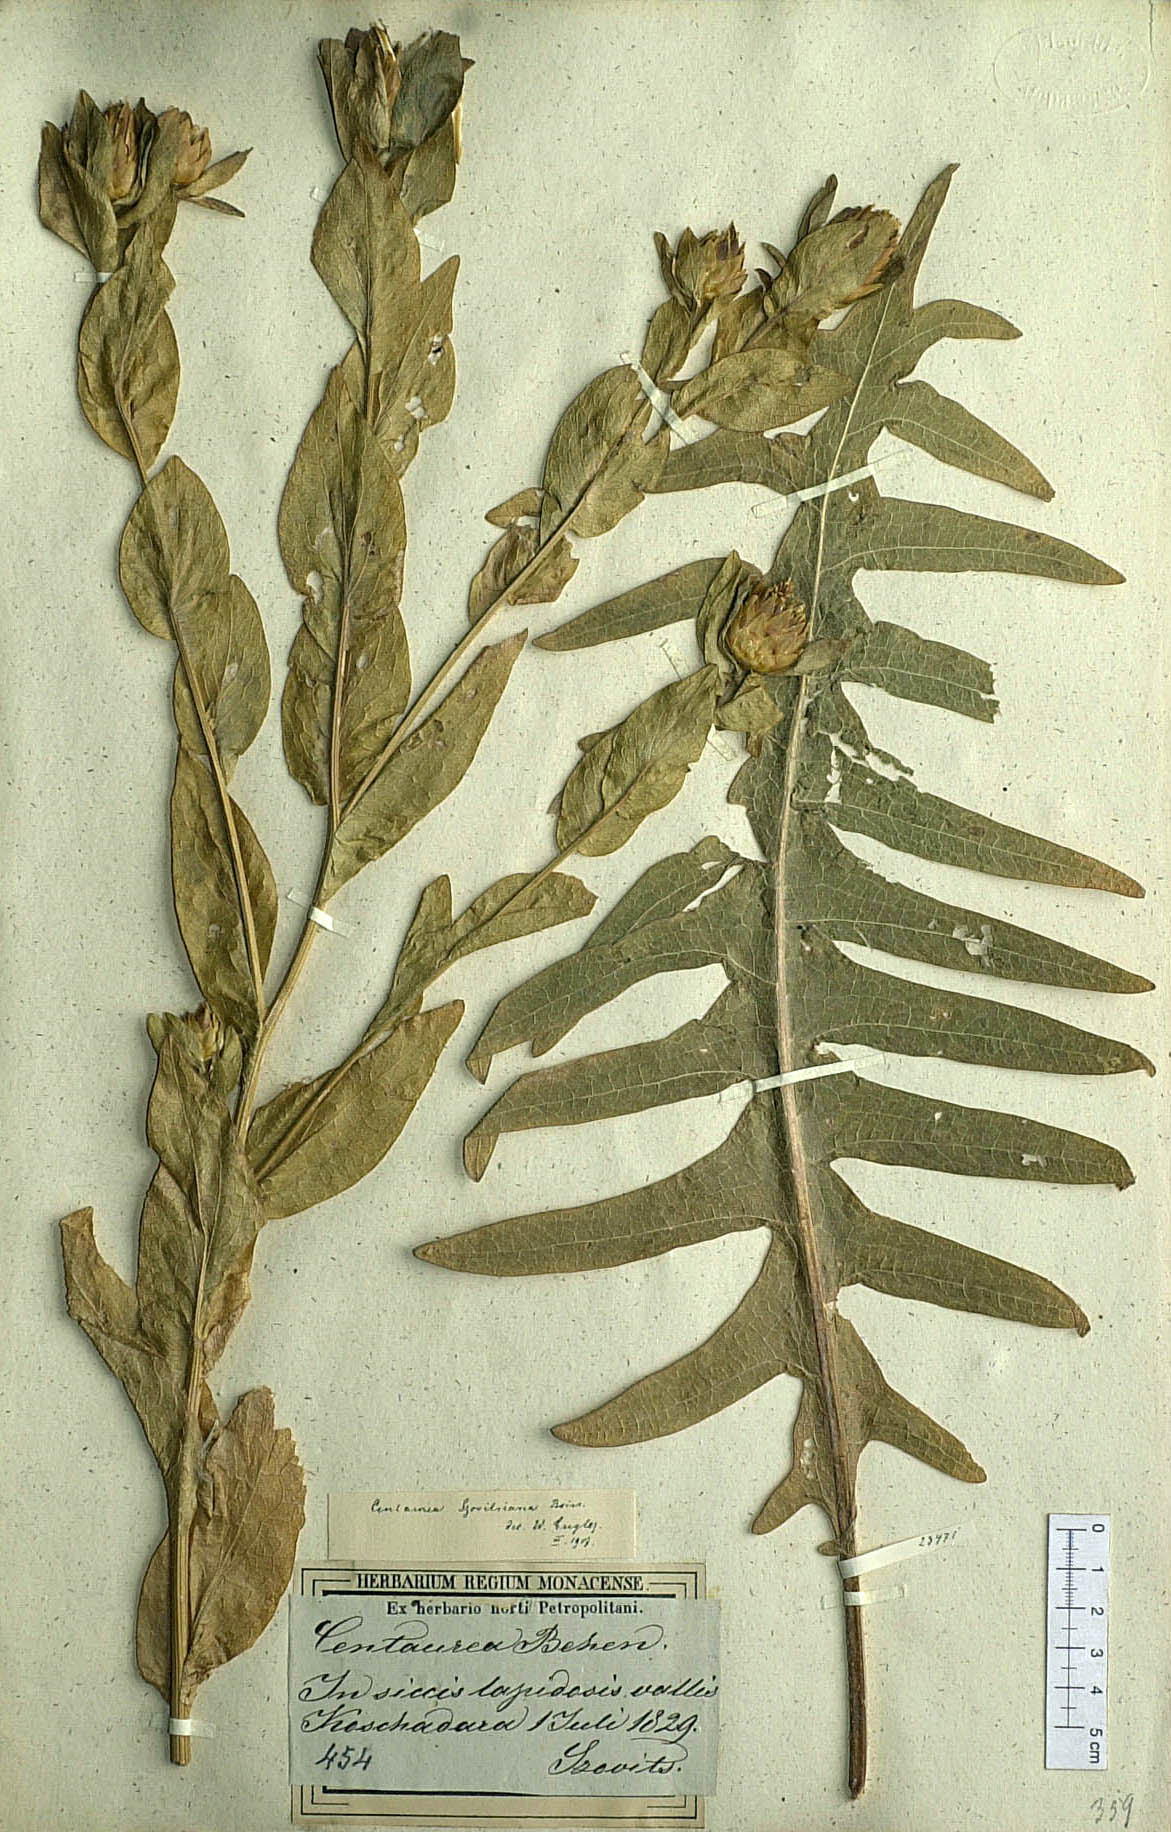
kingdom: Plantae
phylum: Tracheophyta
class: Magnoliopsida
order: Asterales
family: Asteraceae
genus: Centaurea
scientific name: Centaurea szovitsiana
